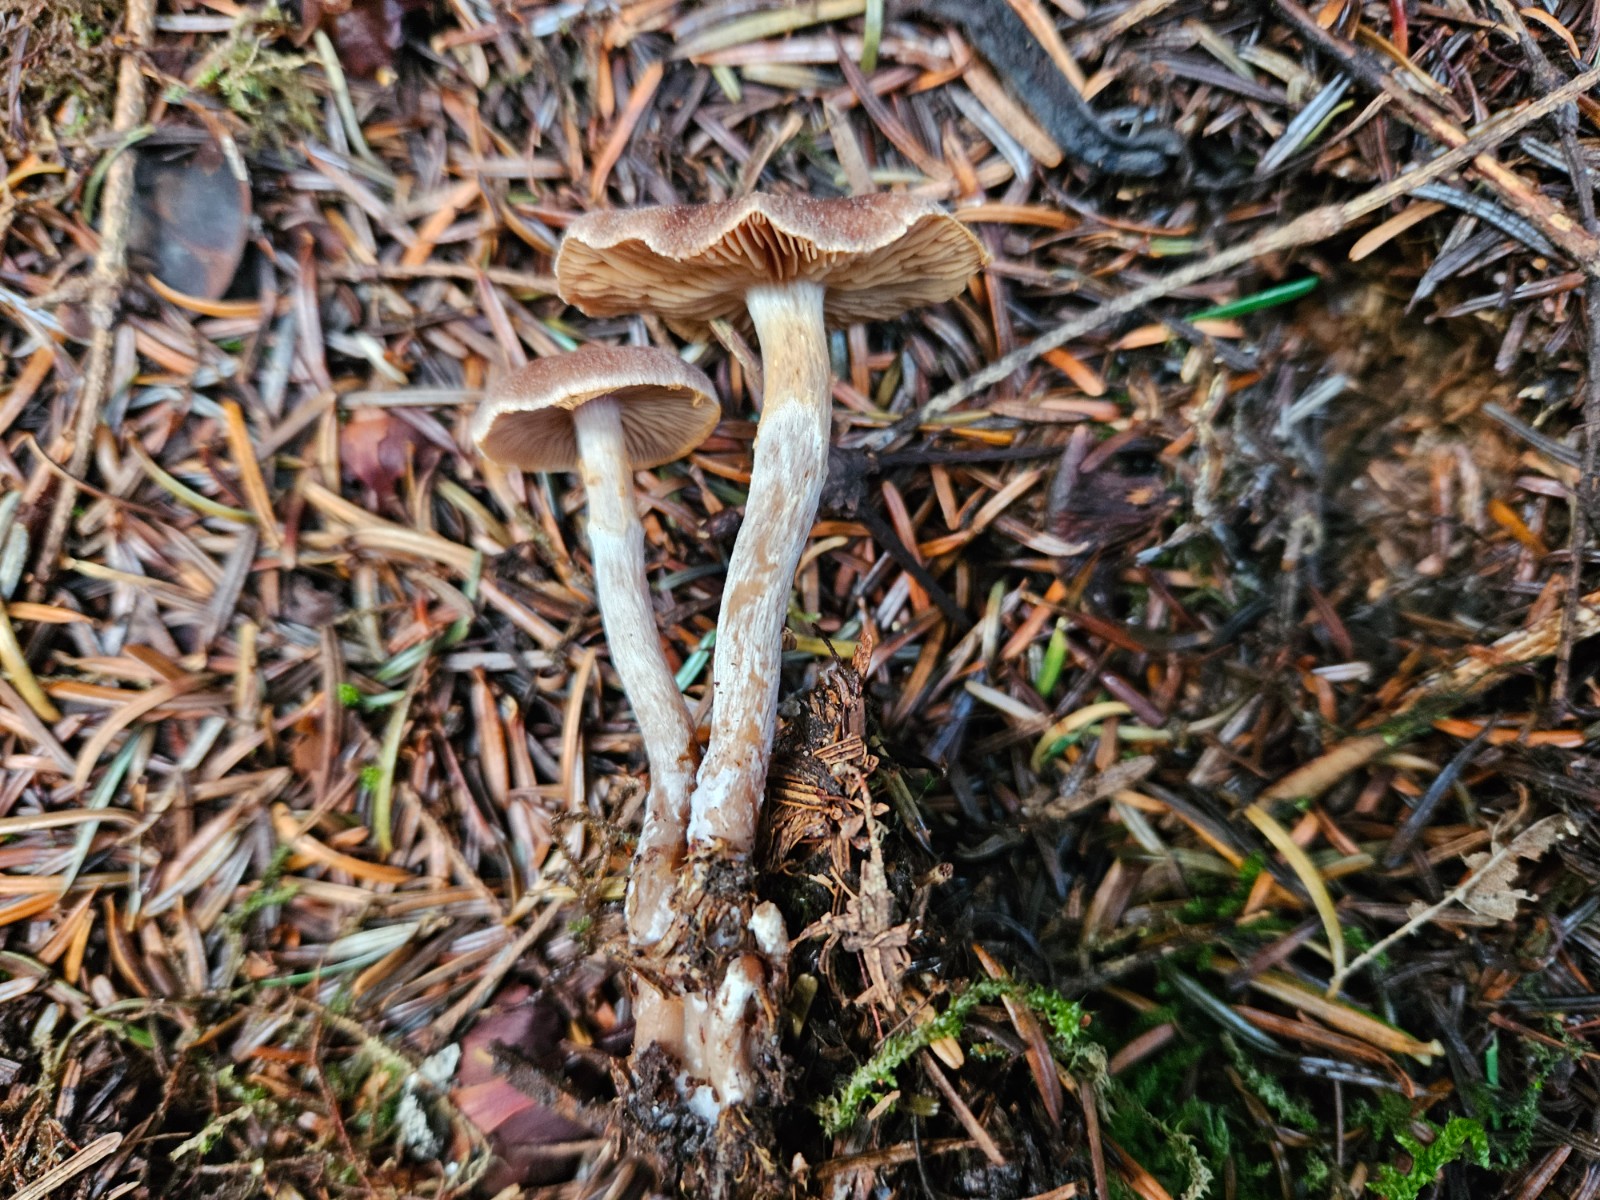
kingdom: Fungi
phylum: Basidiomycota
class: Agaricomycetes
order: Agaricales
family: Cortinariaceae
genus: Cortinarius
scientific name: Cortinarius famatus
